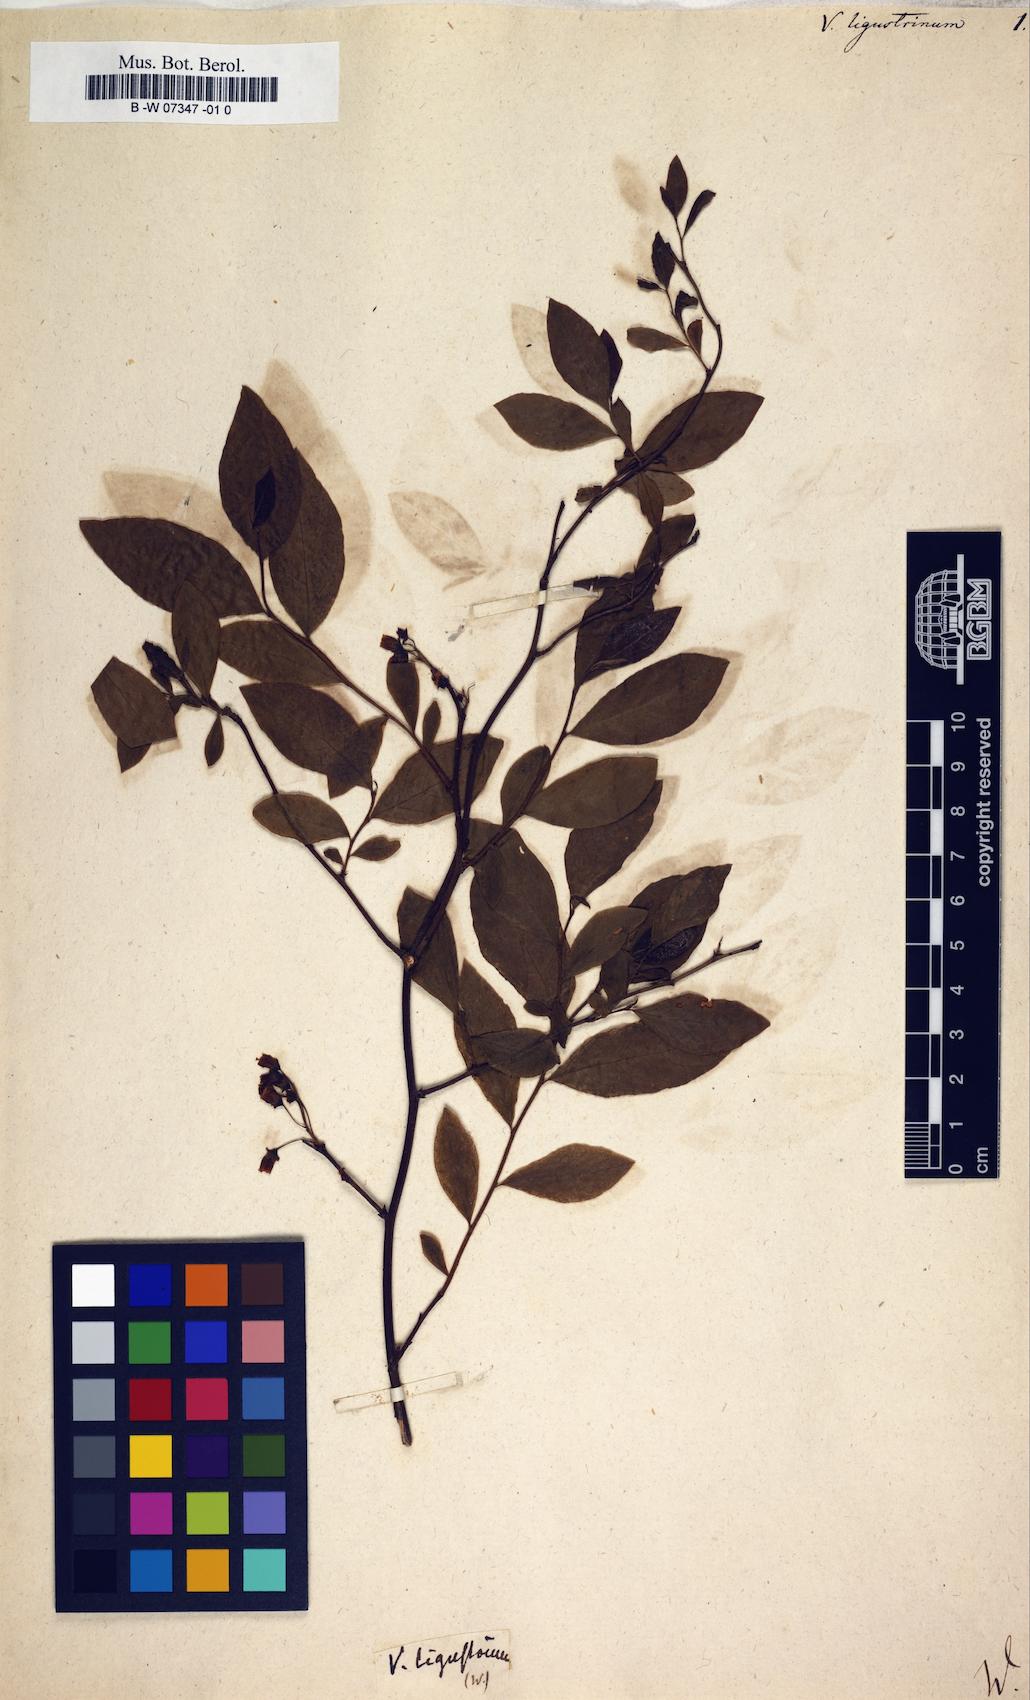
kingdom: Plantae
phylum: Tracheophyta
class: Magnoliopsida
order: Ericales
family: Ericaceae
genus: Lyonia
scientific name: Lyonia ligustrina
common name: Maleberry
